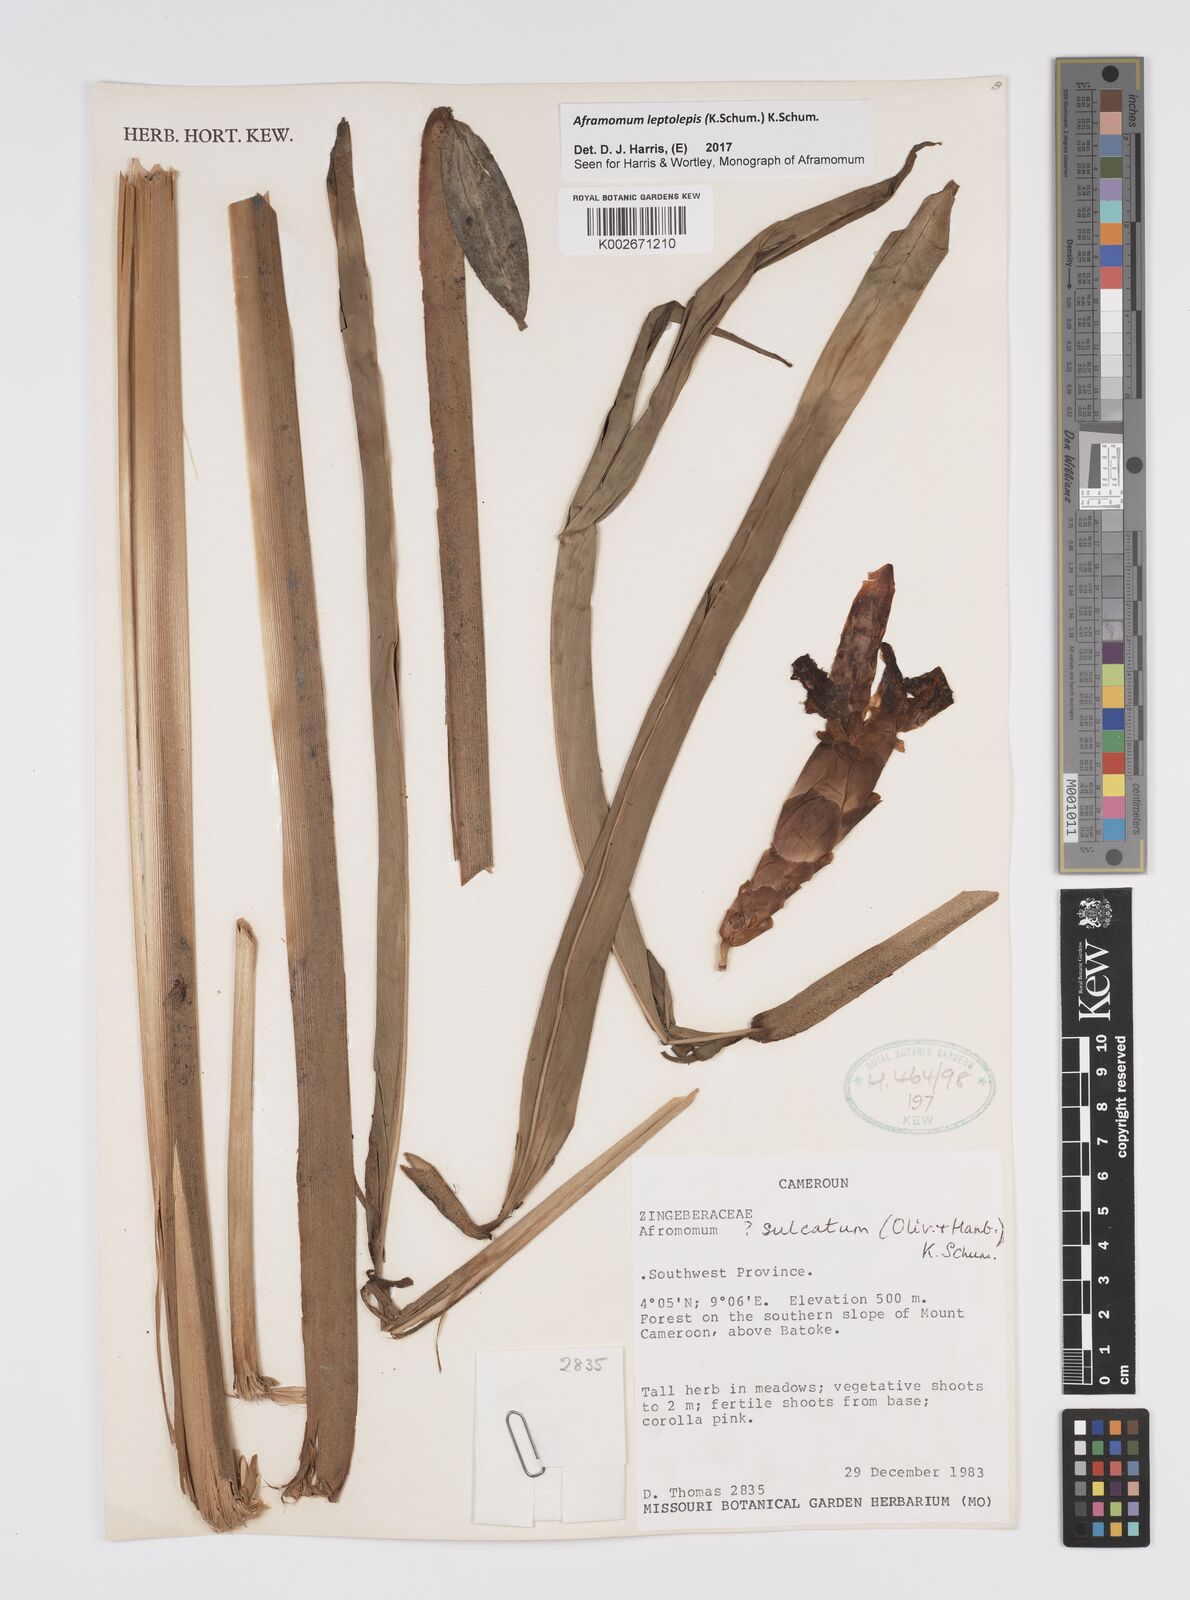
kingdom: Plantae
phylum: Tracheophyta
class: Liliopsida
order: Zingiberales
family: Zingiberaceae
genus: Aframomum
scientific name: Aframomum leptolepis
